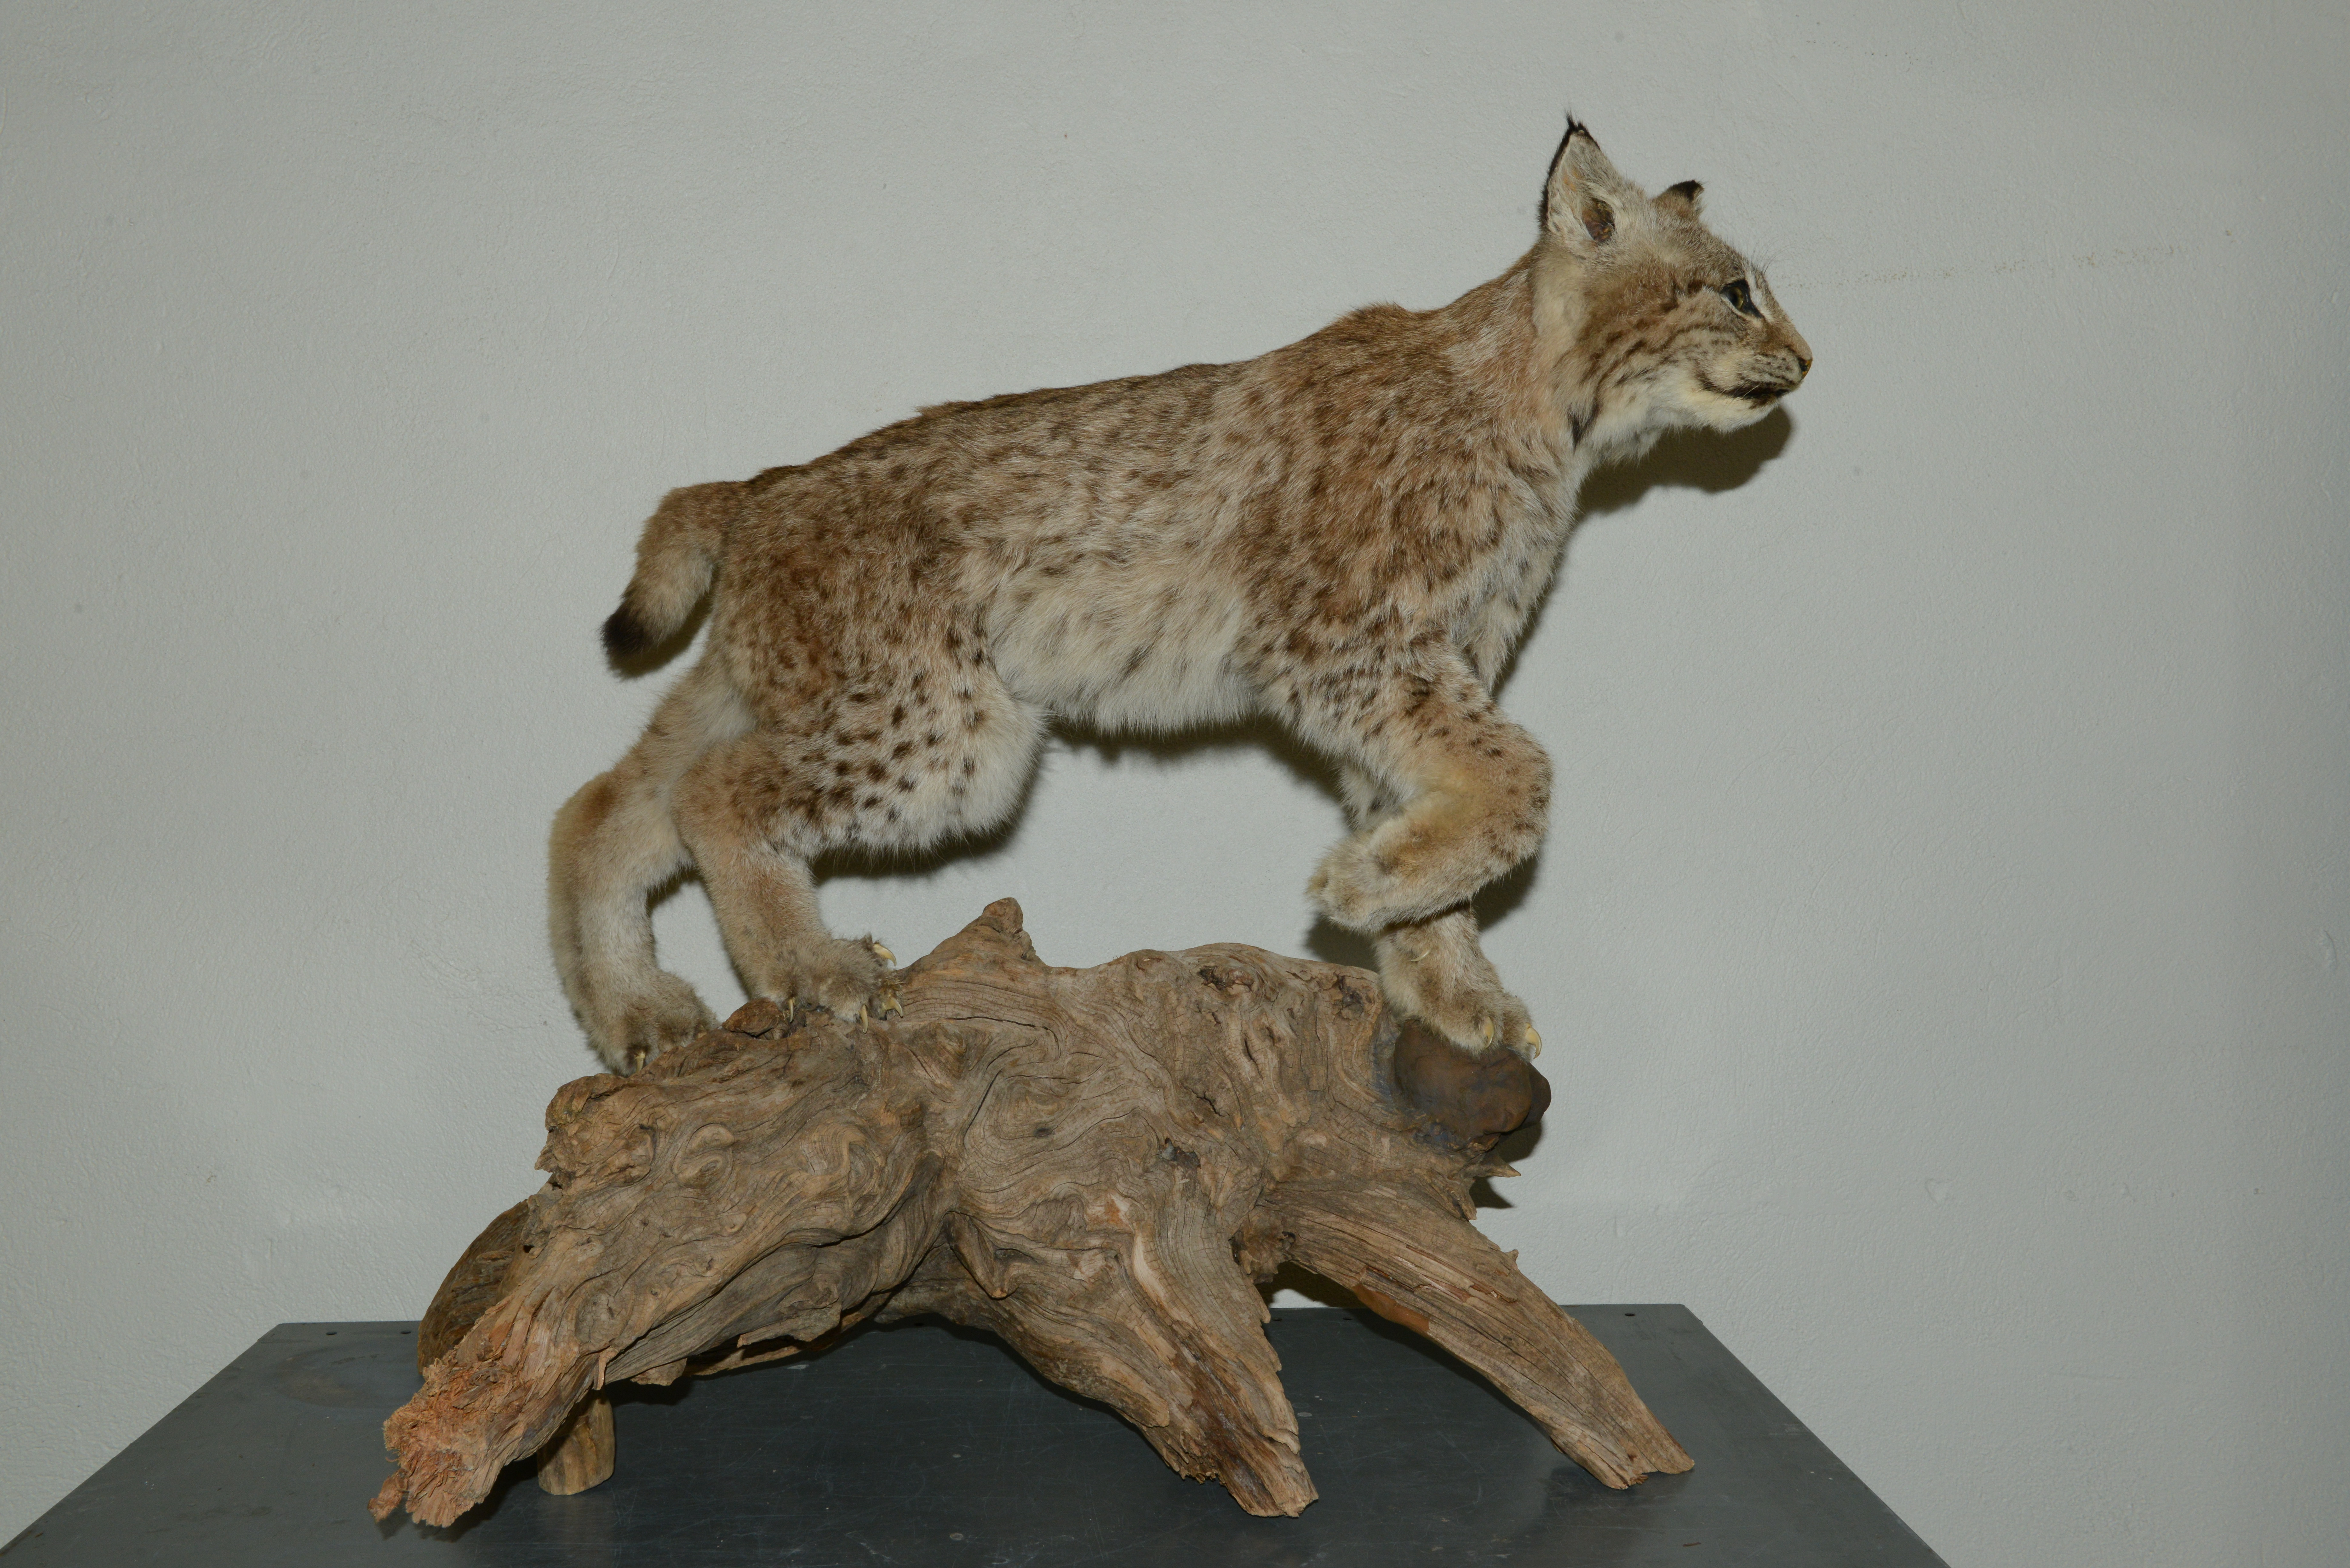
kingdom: Animalia
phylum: Chordata
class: Mammalia
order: Carnivora
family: Felidae
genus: Lynx
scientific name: Lynx lynx
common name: Eurasian lynx
